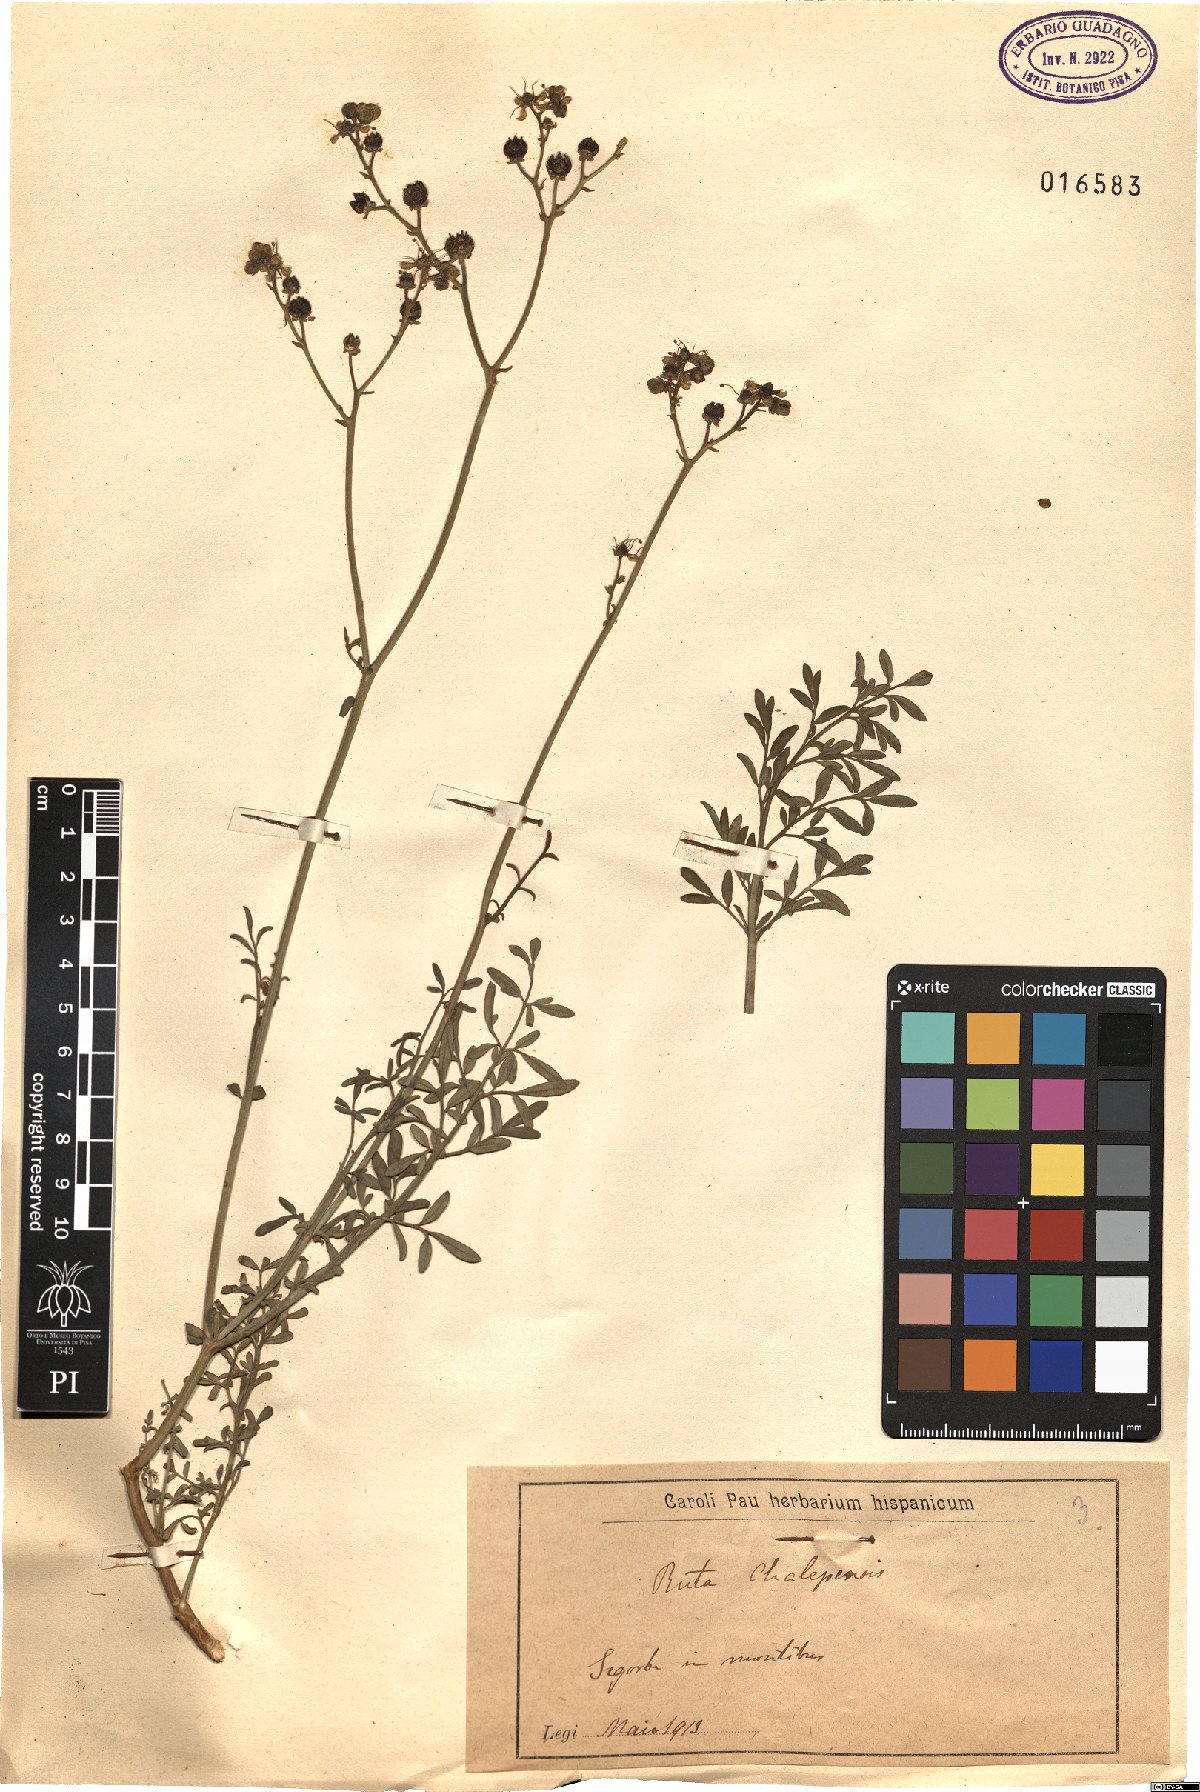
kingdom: Plantae
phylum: Tracheophyta
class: Magnoliopsida
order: Sapindales
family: Rutaceae
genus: Ruta
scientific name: Ruta chalepensis
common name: Fringed rue
